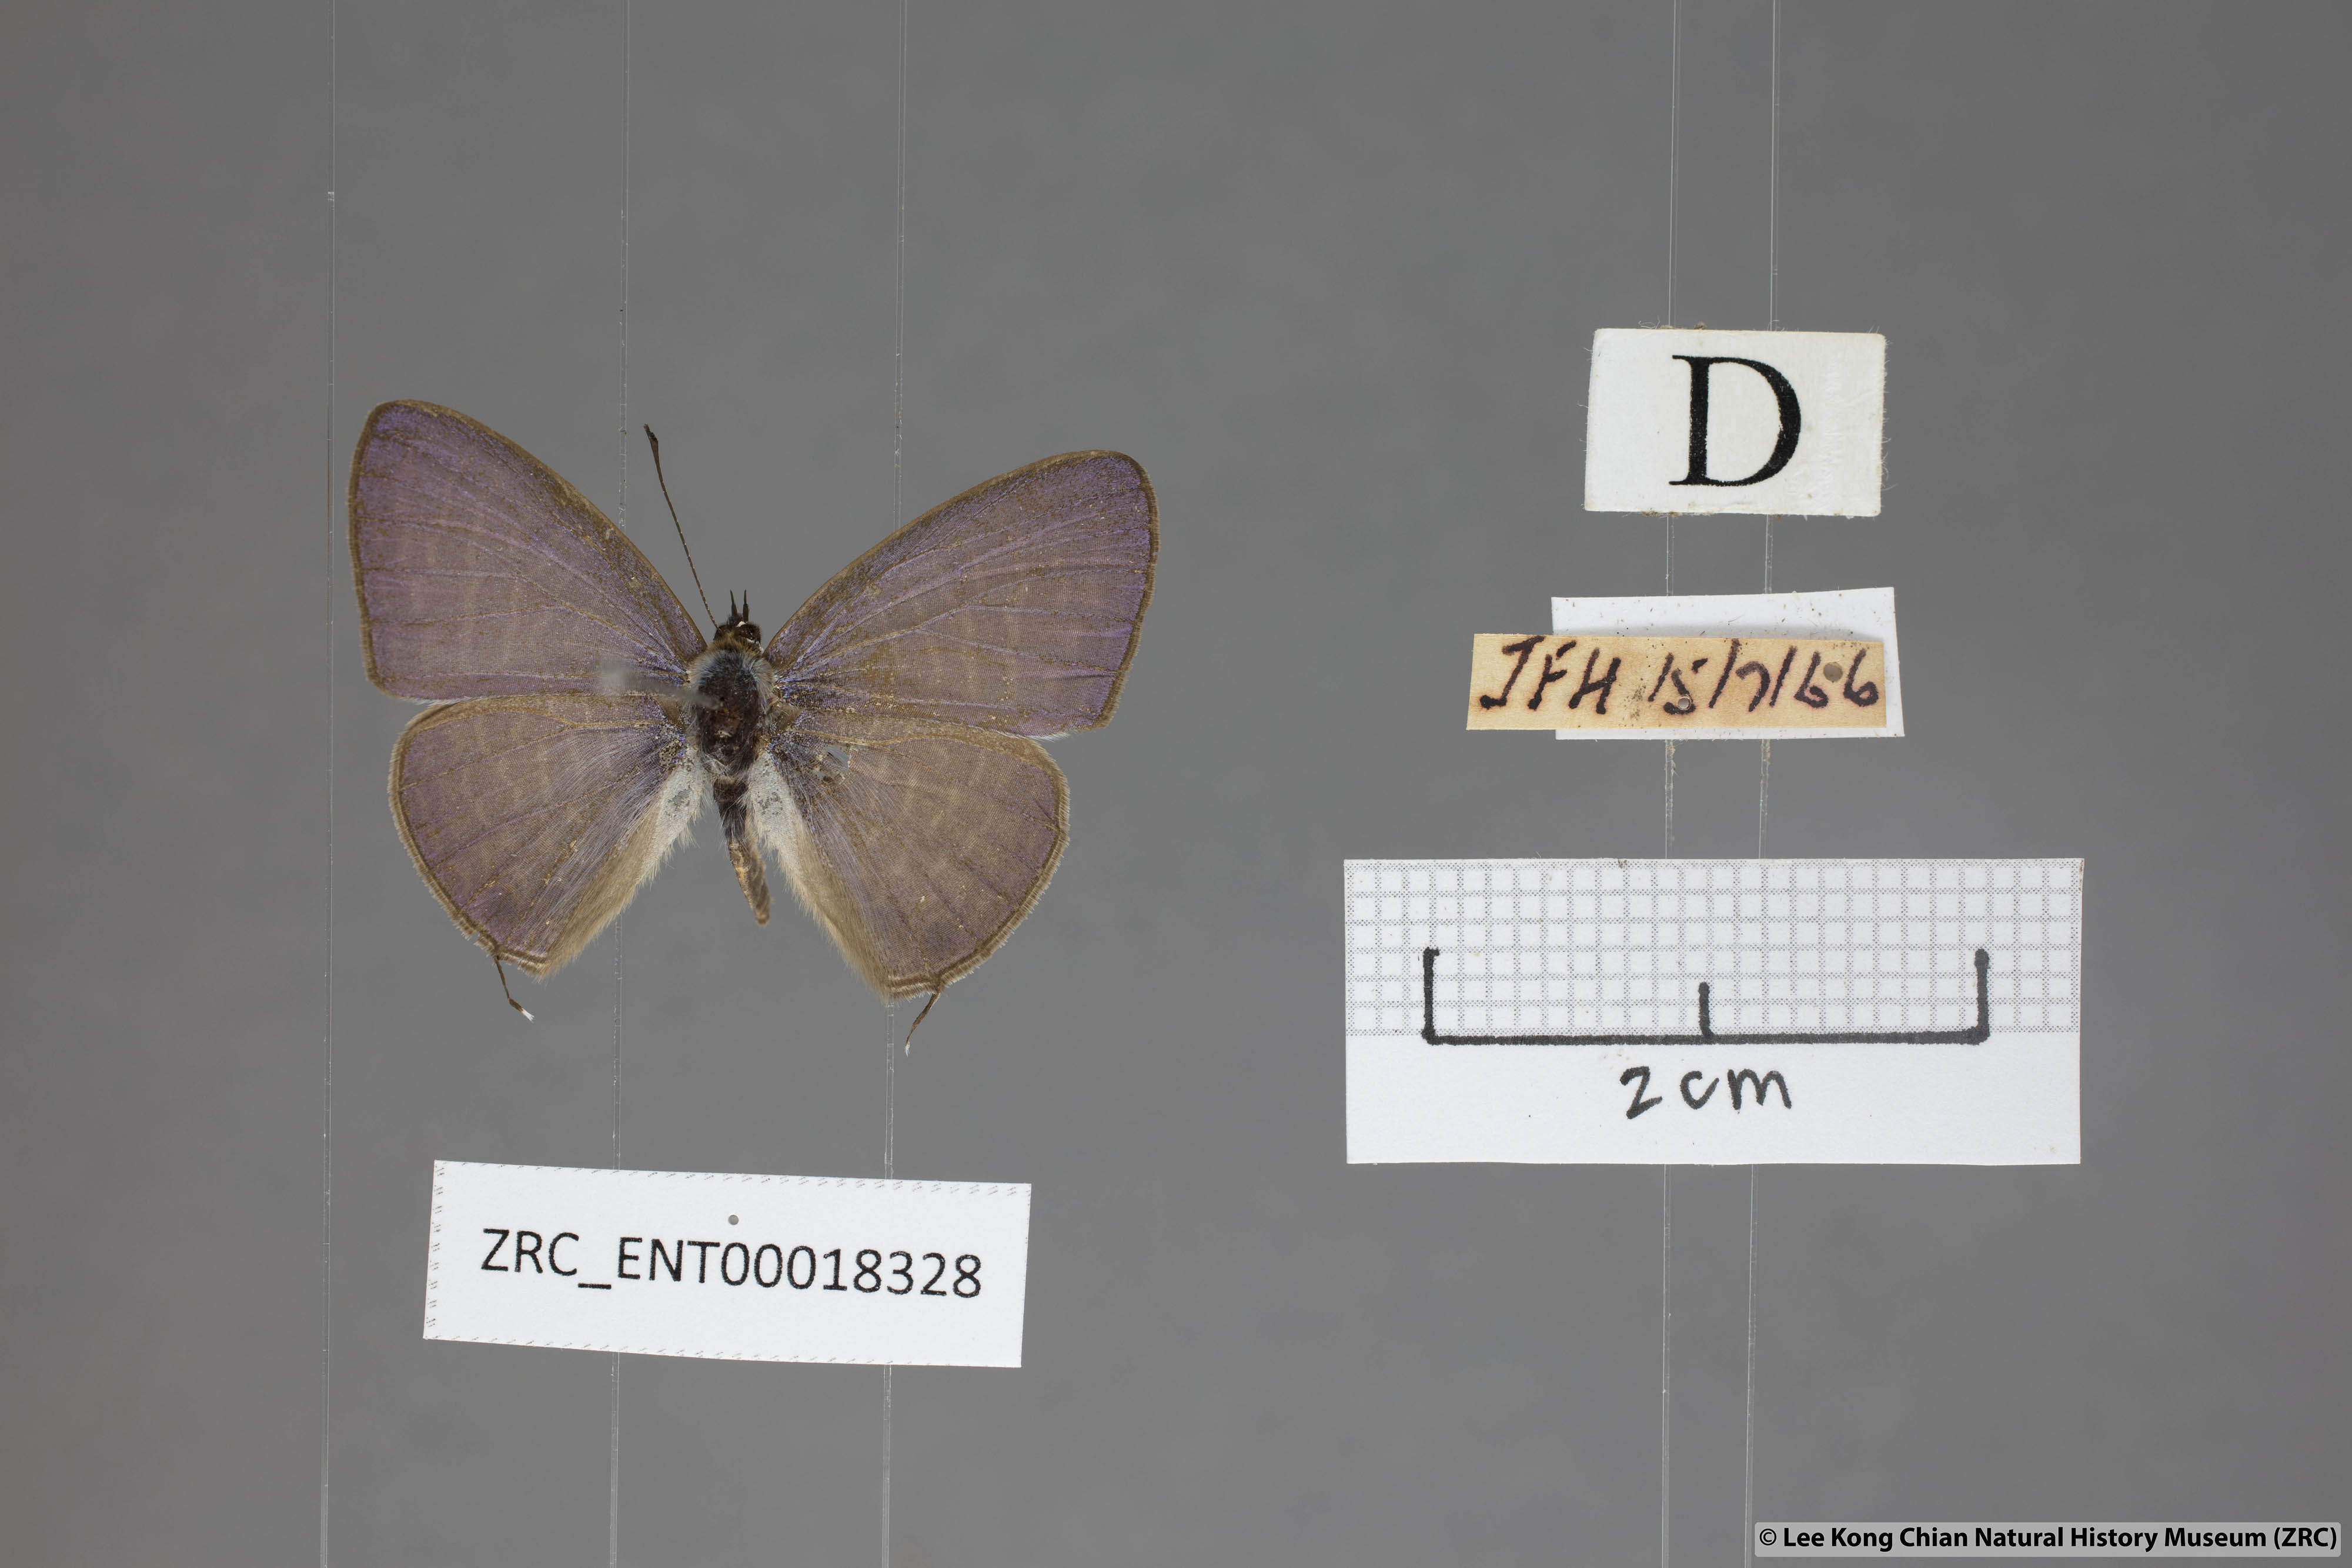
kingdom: Animalia
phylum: Arthropoda
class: Insecta
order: Lepidoptera
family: Lycaenidae
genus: Nacaduba
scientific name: Nacaduba beroe
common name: Opaque sixline blue
